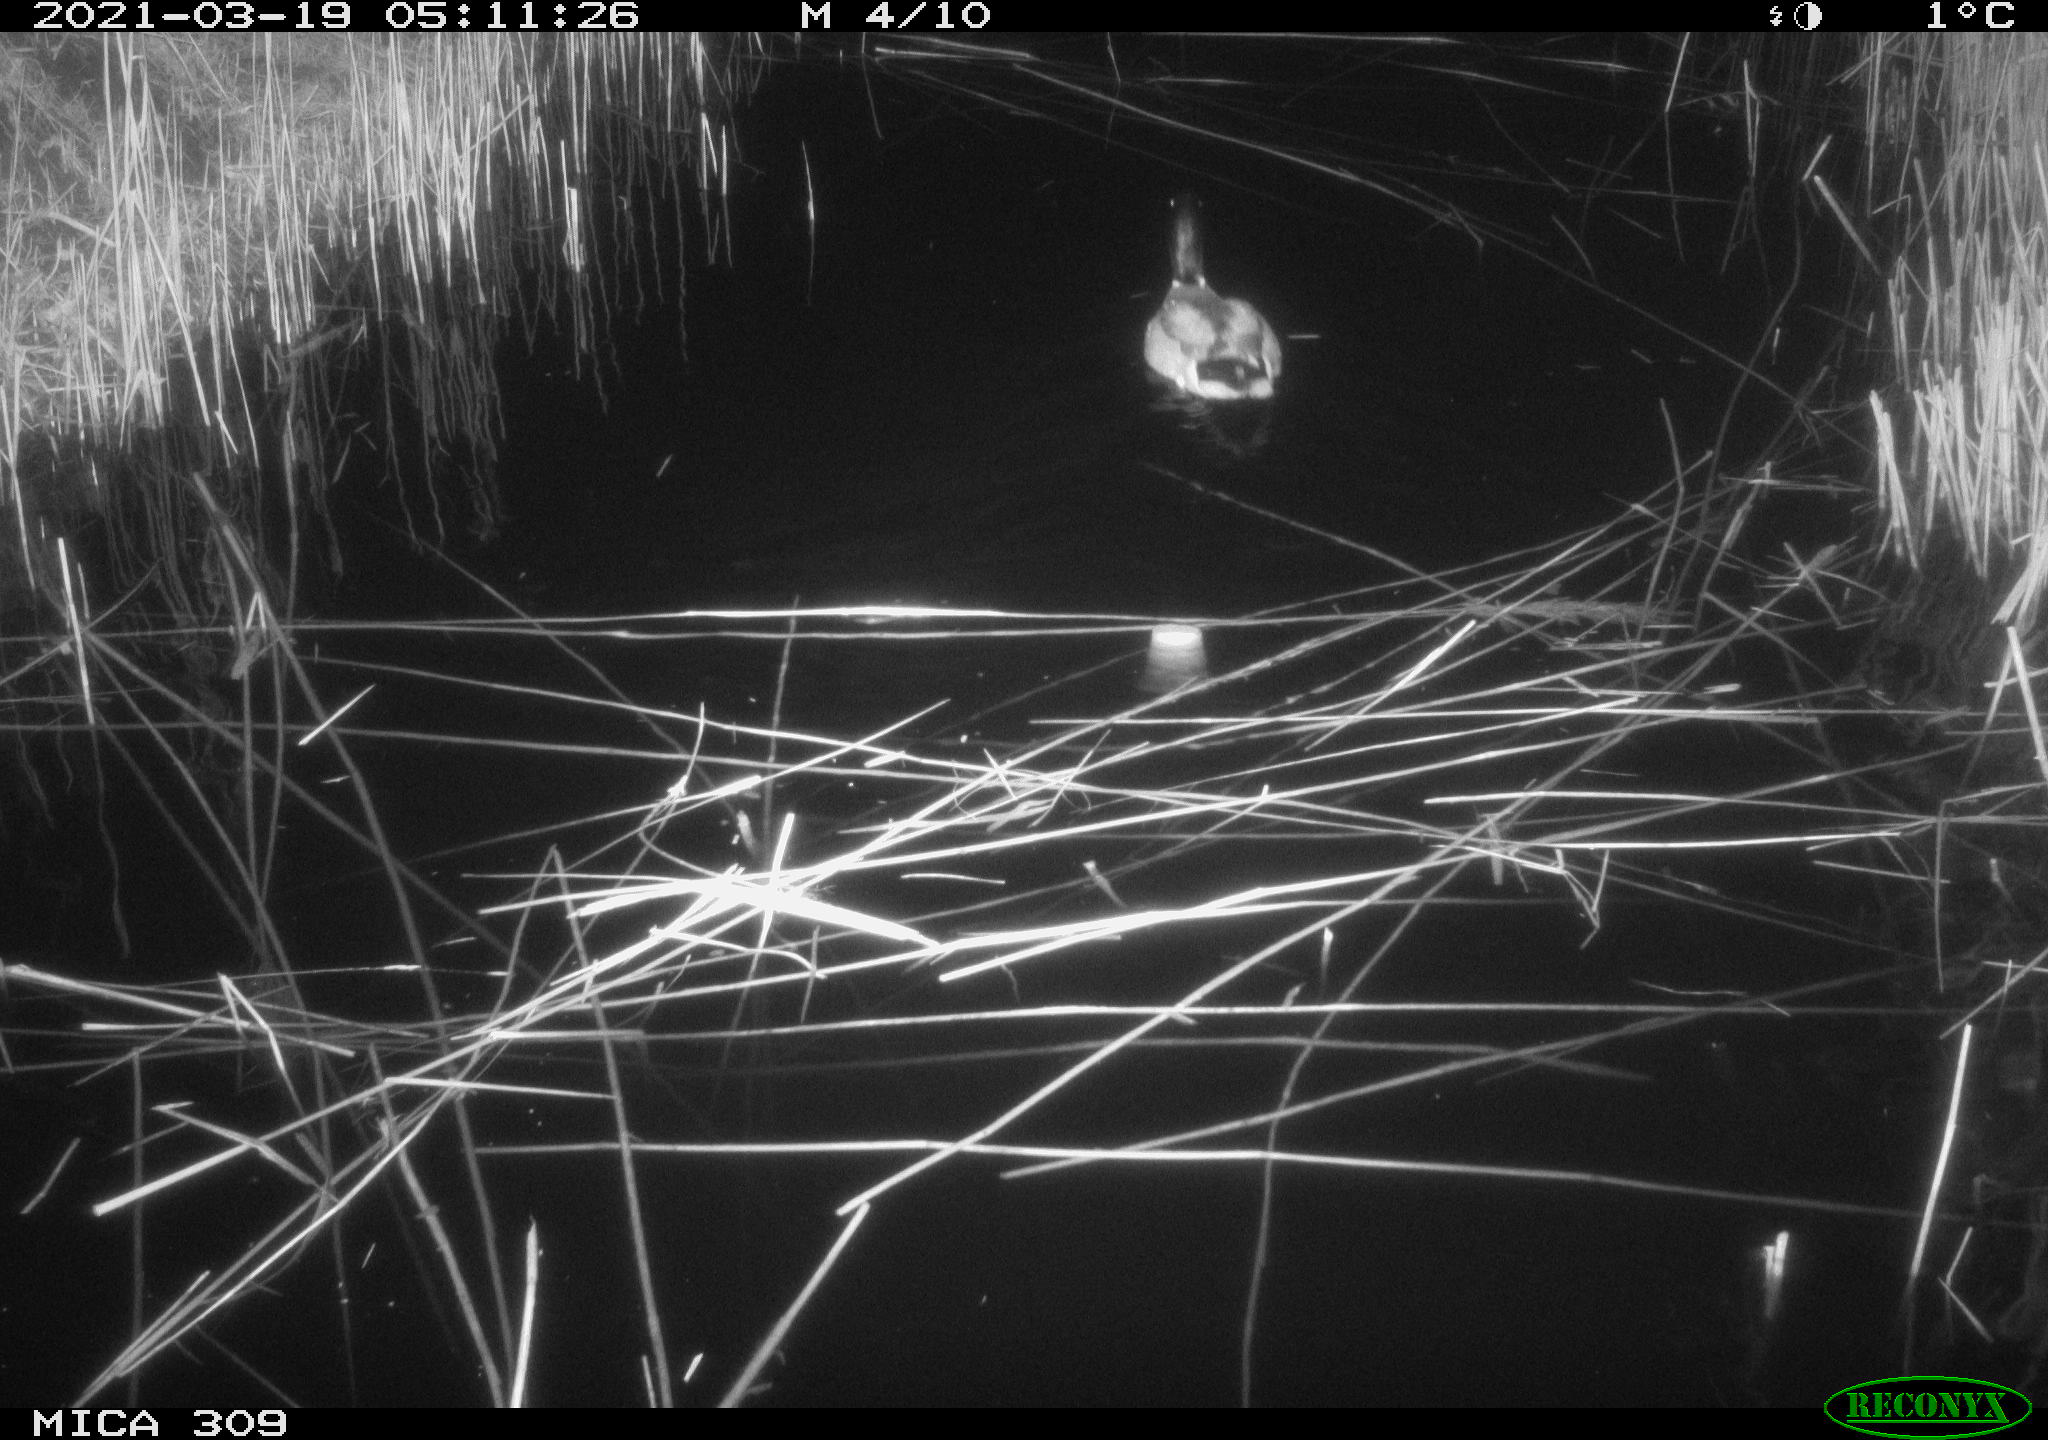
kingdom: Animalia
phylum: Chordata
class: Aves
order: Anseriformes
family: Anatidae
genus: Anas
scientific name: Anas platyrhynchos
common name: Mallard
